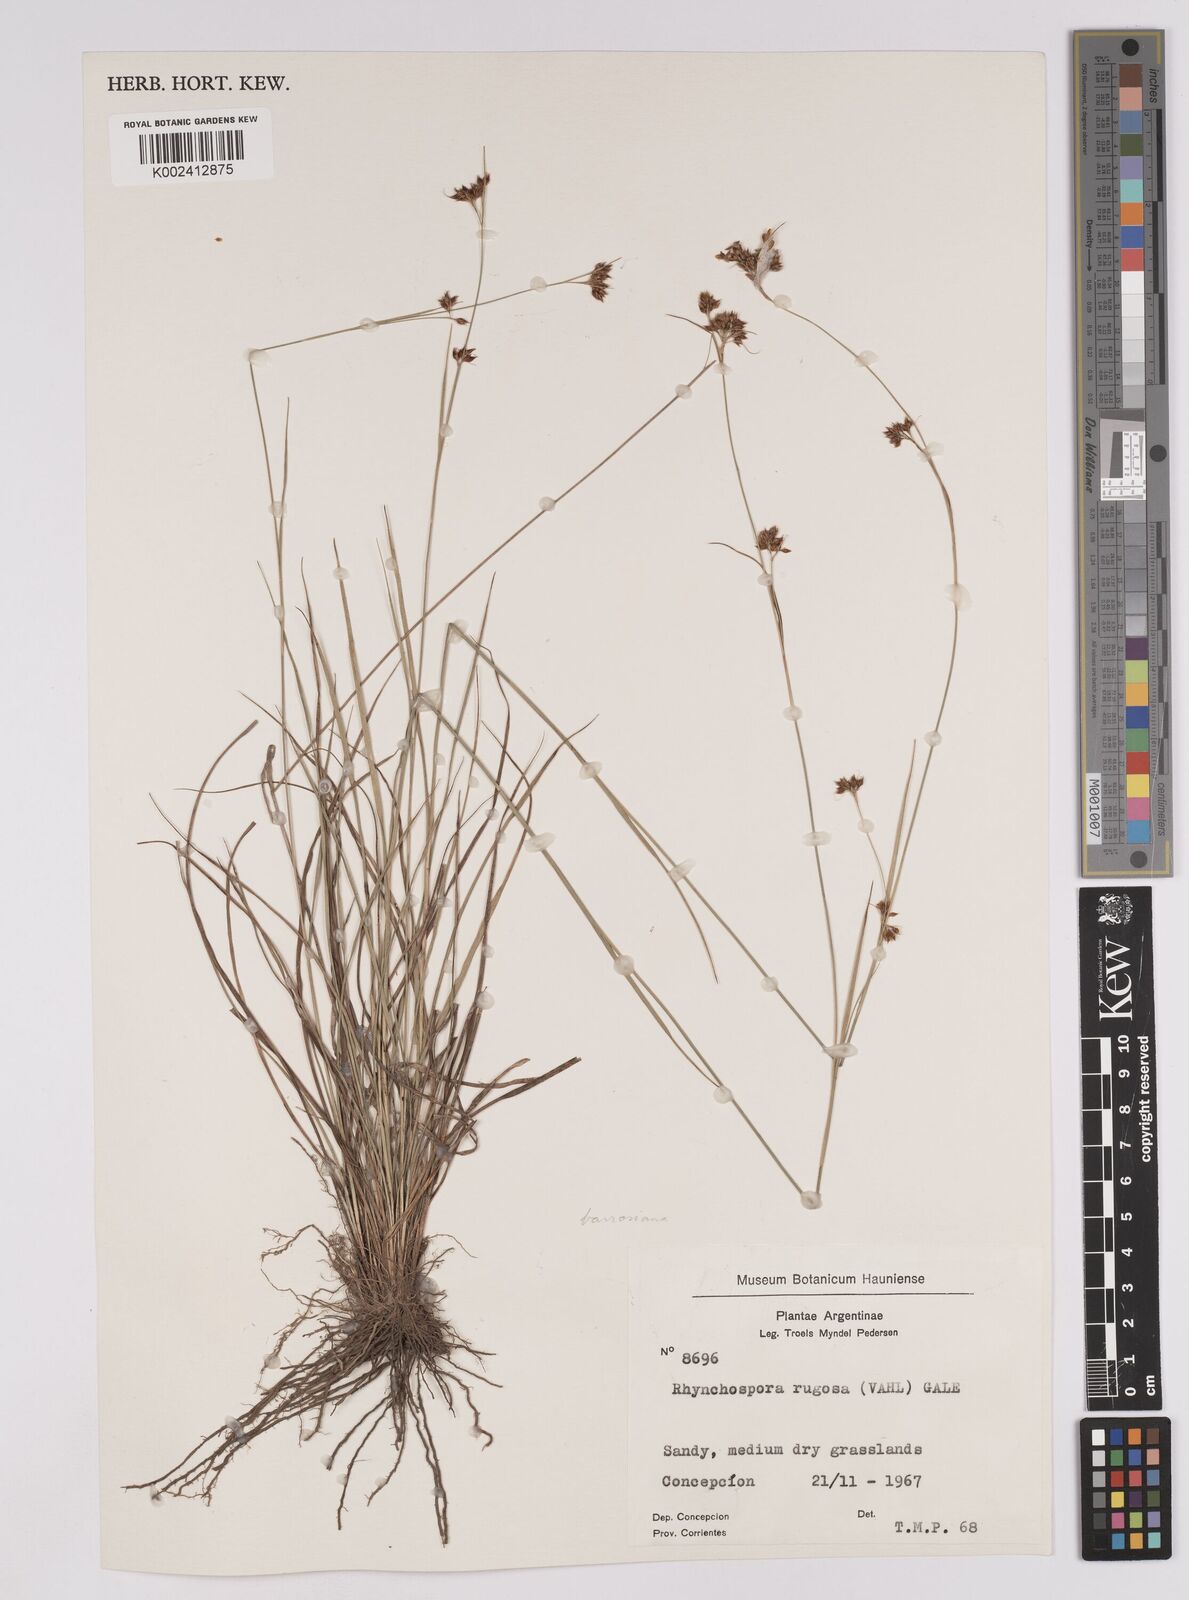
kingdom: Plantae
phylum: Tracheophyta
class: Liliopsida
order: Poales
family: Cyperaceae
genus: Rhynchospora
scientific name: Rhynchospora barrosiana
